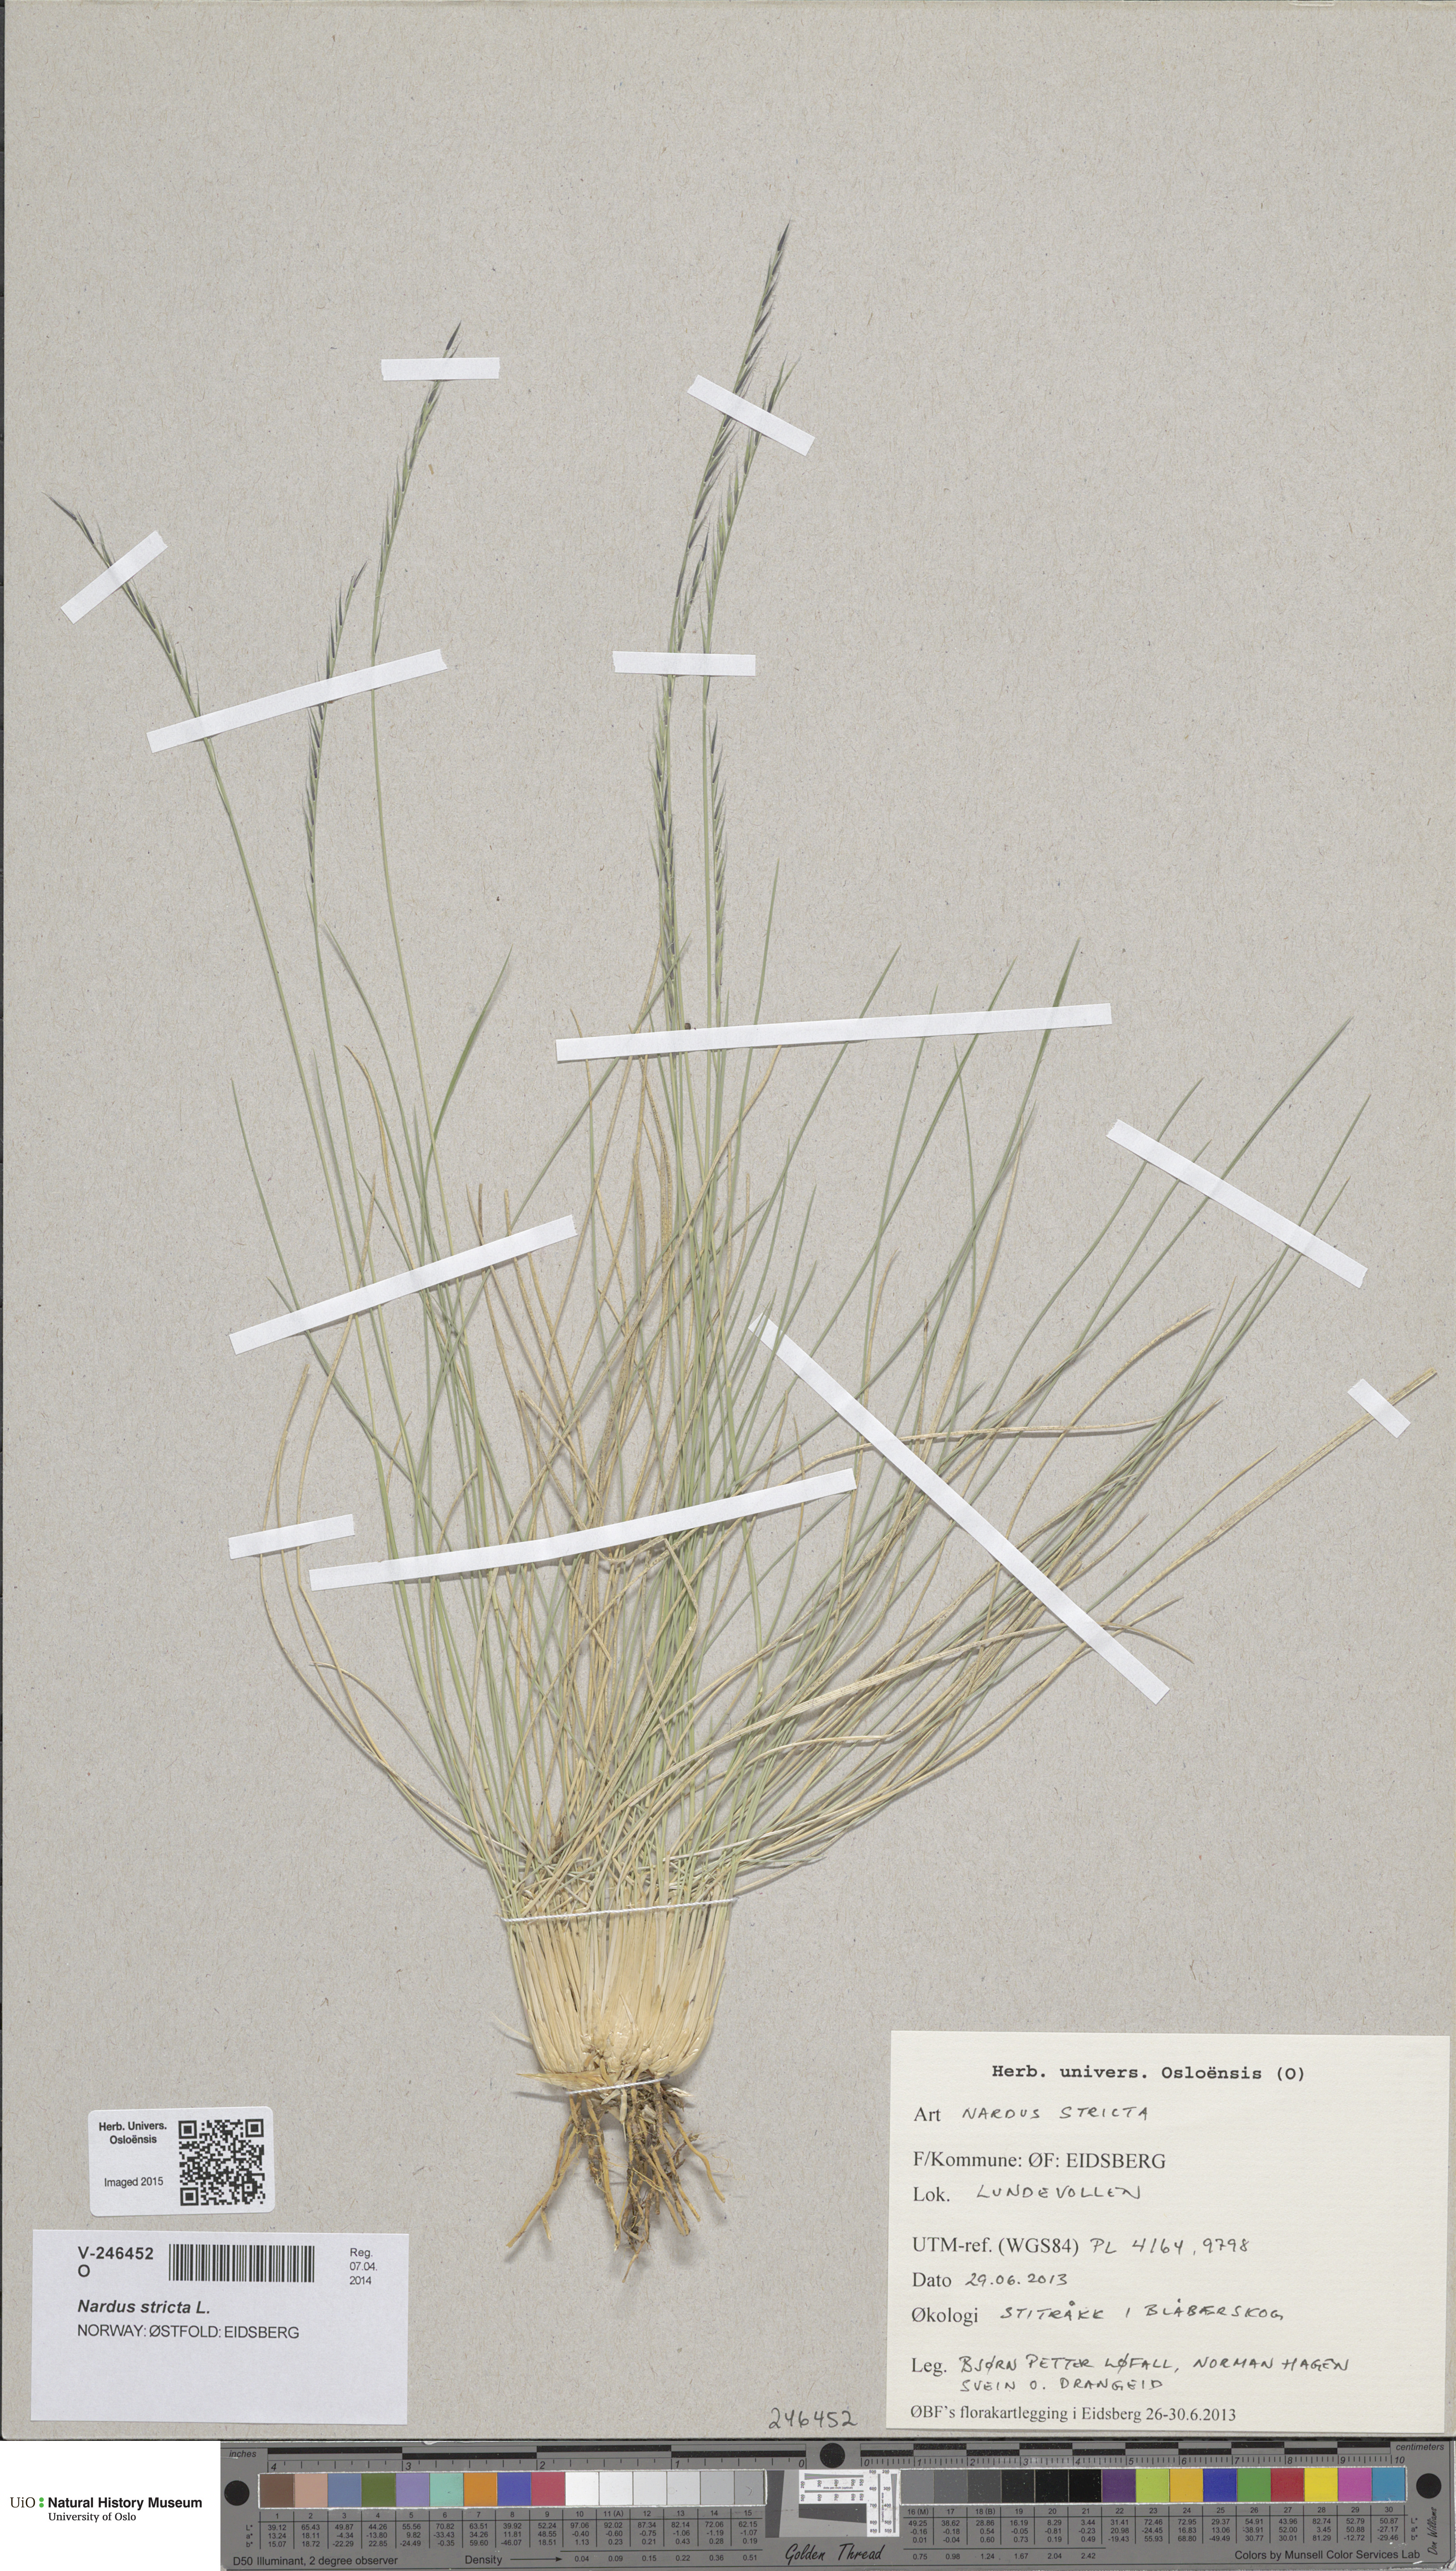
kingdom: Plantae
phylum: Tracheophyta
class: Liliopsida
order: Poales
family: Poaceae
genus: Nardus
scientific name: Nardus stricta
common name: Mat-grass
